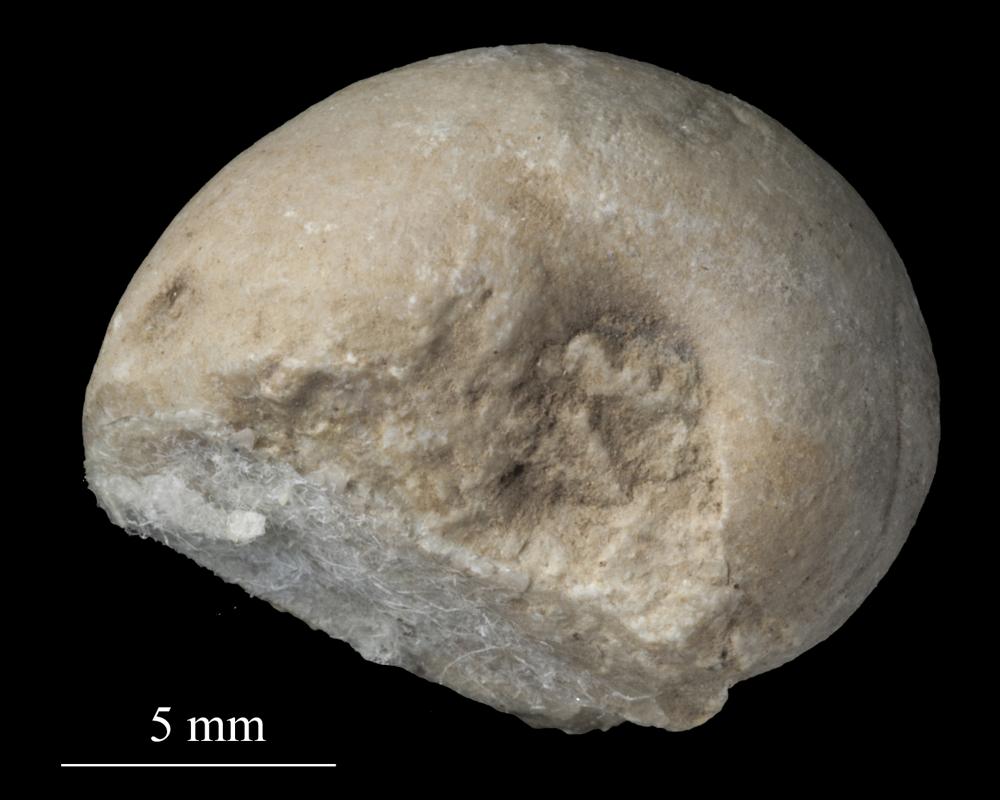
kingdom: Animalia
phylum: Mollusca
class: Gastropoda
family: Bellerophontidae
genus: Bellerophon
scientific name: Bellerophon
